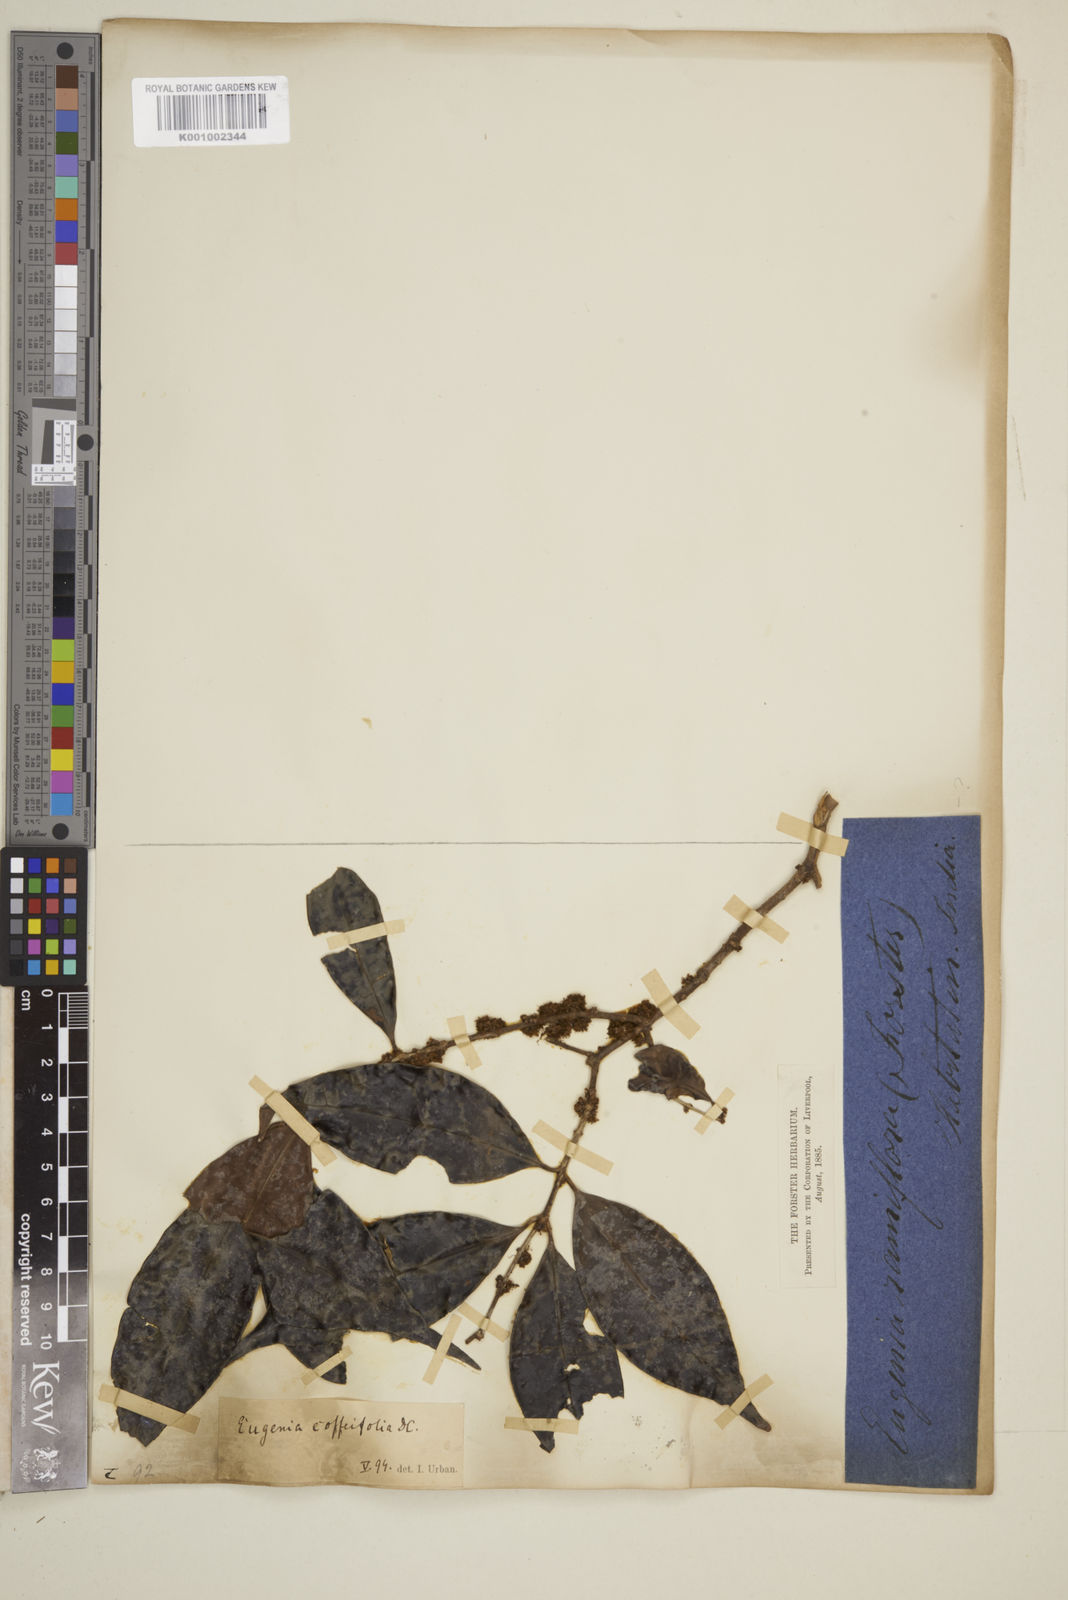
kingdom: Plantae
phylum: Tracheophyta
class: Magnoliopsida
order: Myrtales
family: Myrtaceae
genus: Eugenia
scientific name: Eugenia coffeifolia
